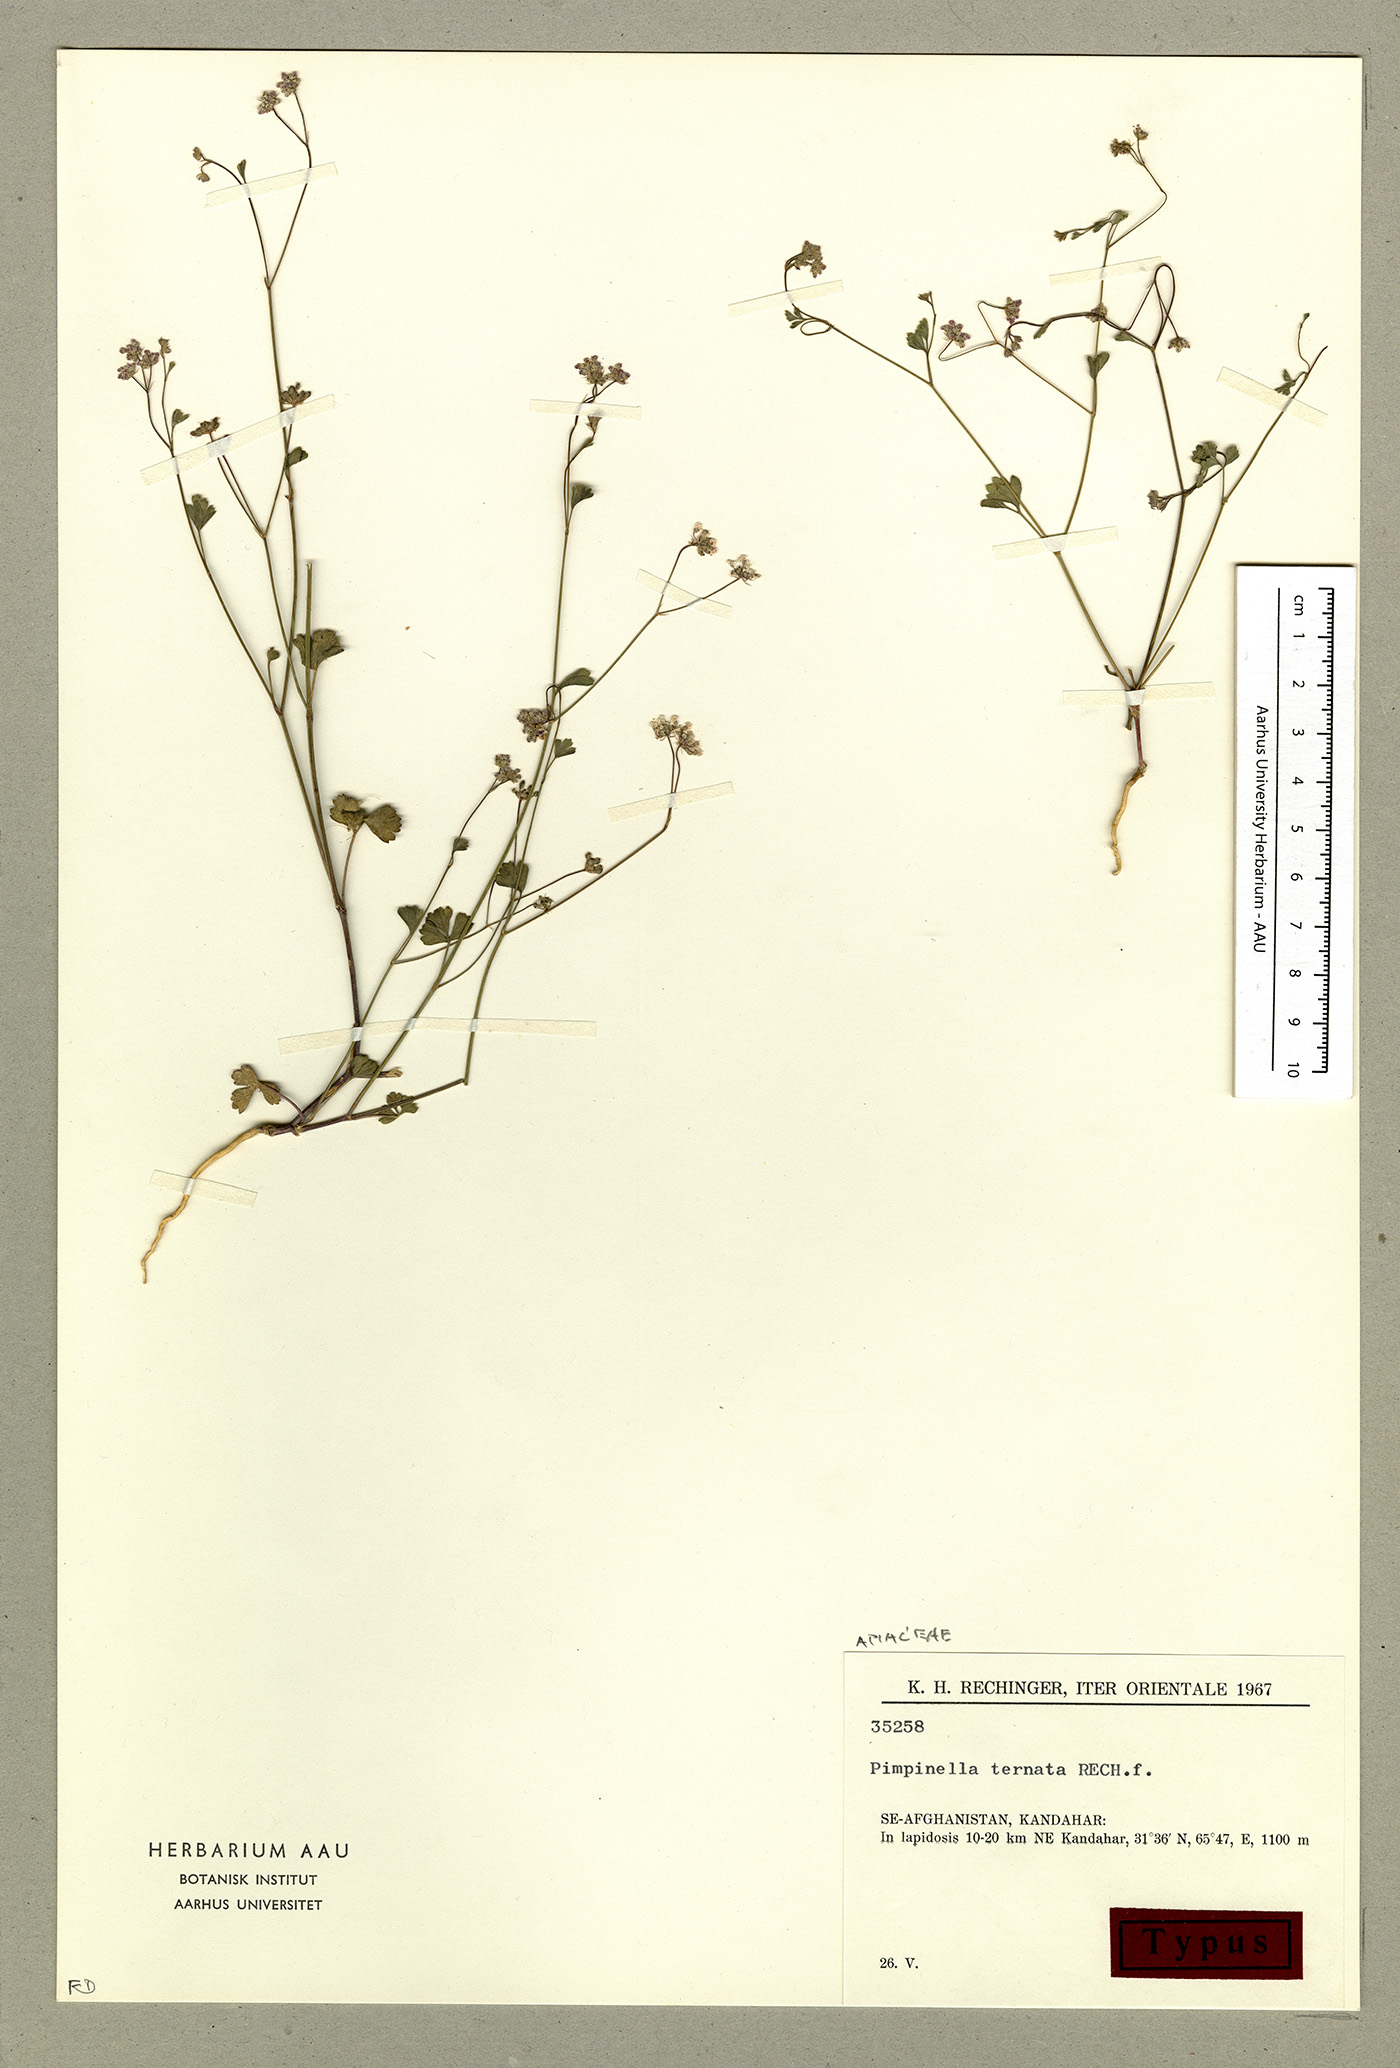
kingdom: Plantae
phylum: Tracheophyta
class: Magnoliopsida
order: Apiales
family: Apiaceae
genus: Psammogeton
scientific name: Psammogeton ternatus
